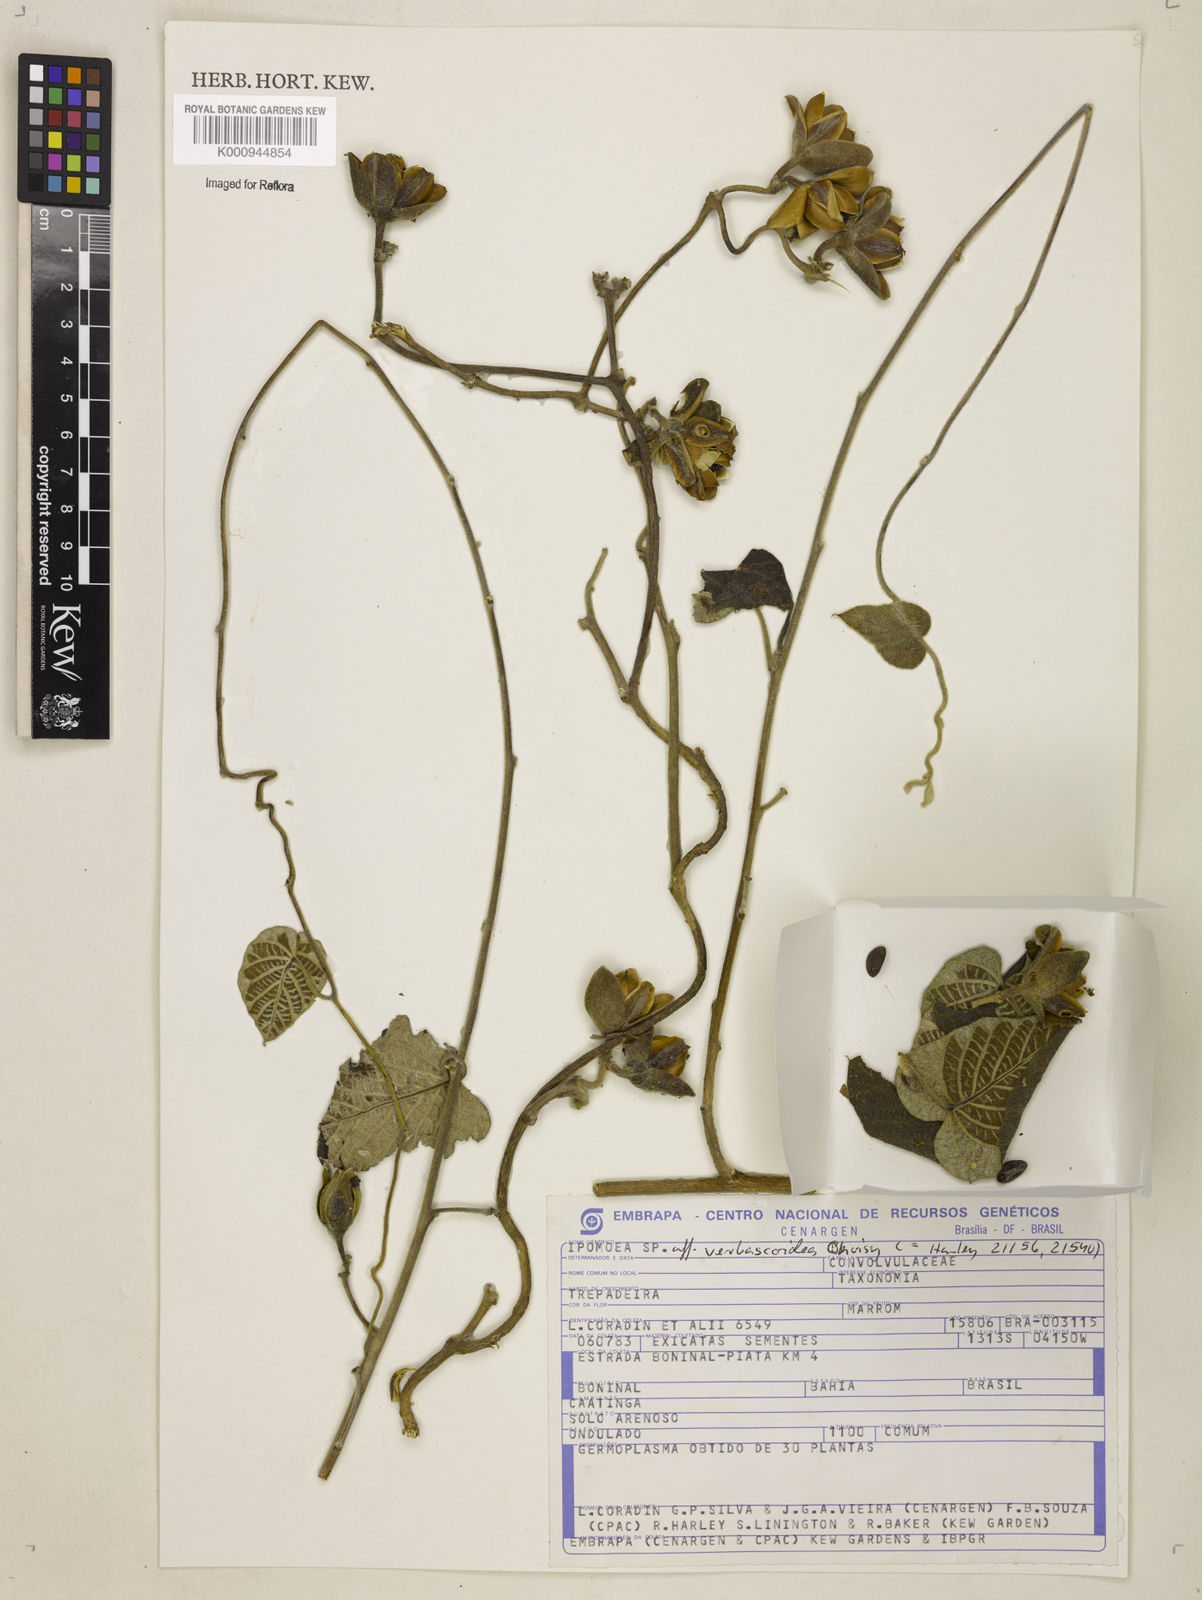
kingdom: Plantae
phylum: Tracheophyta
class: Magnoliopsida
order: Solanales
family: Convolvulaceae
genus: Ipomoea
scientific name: Ipomoea brasiliana
